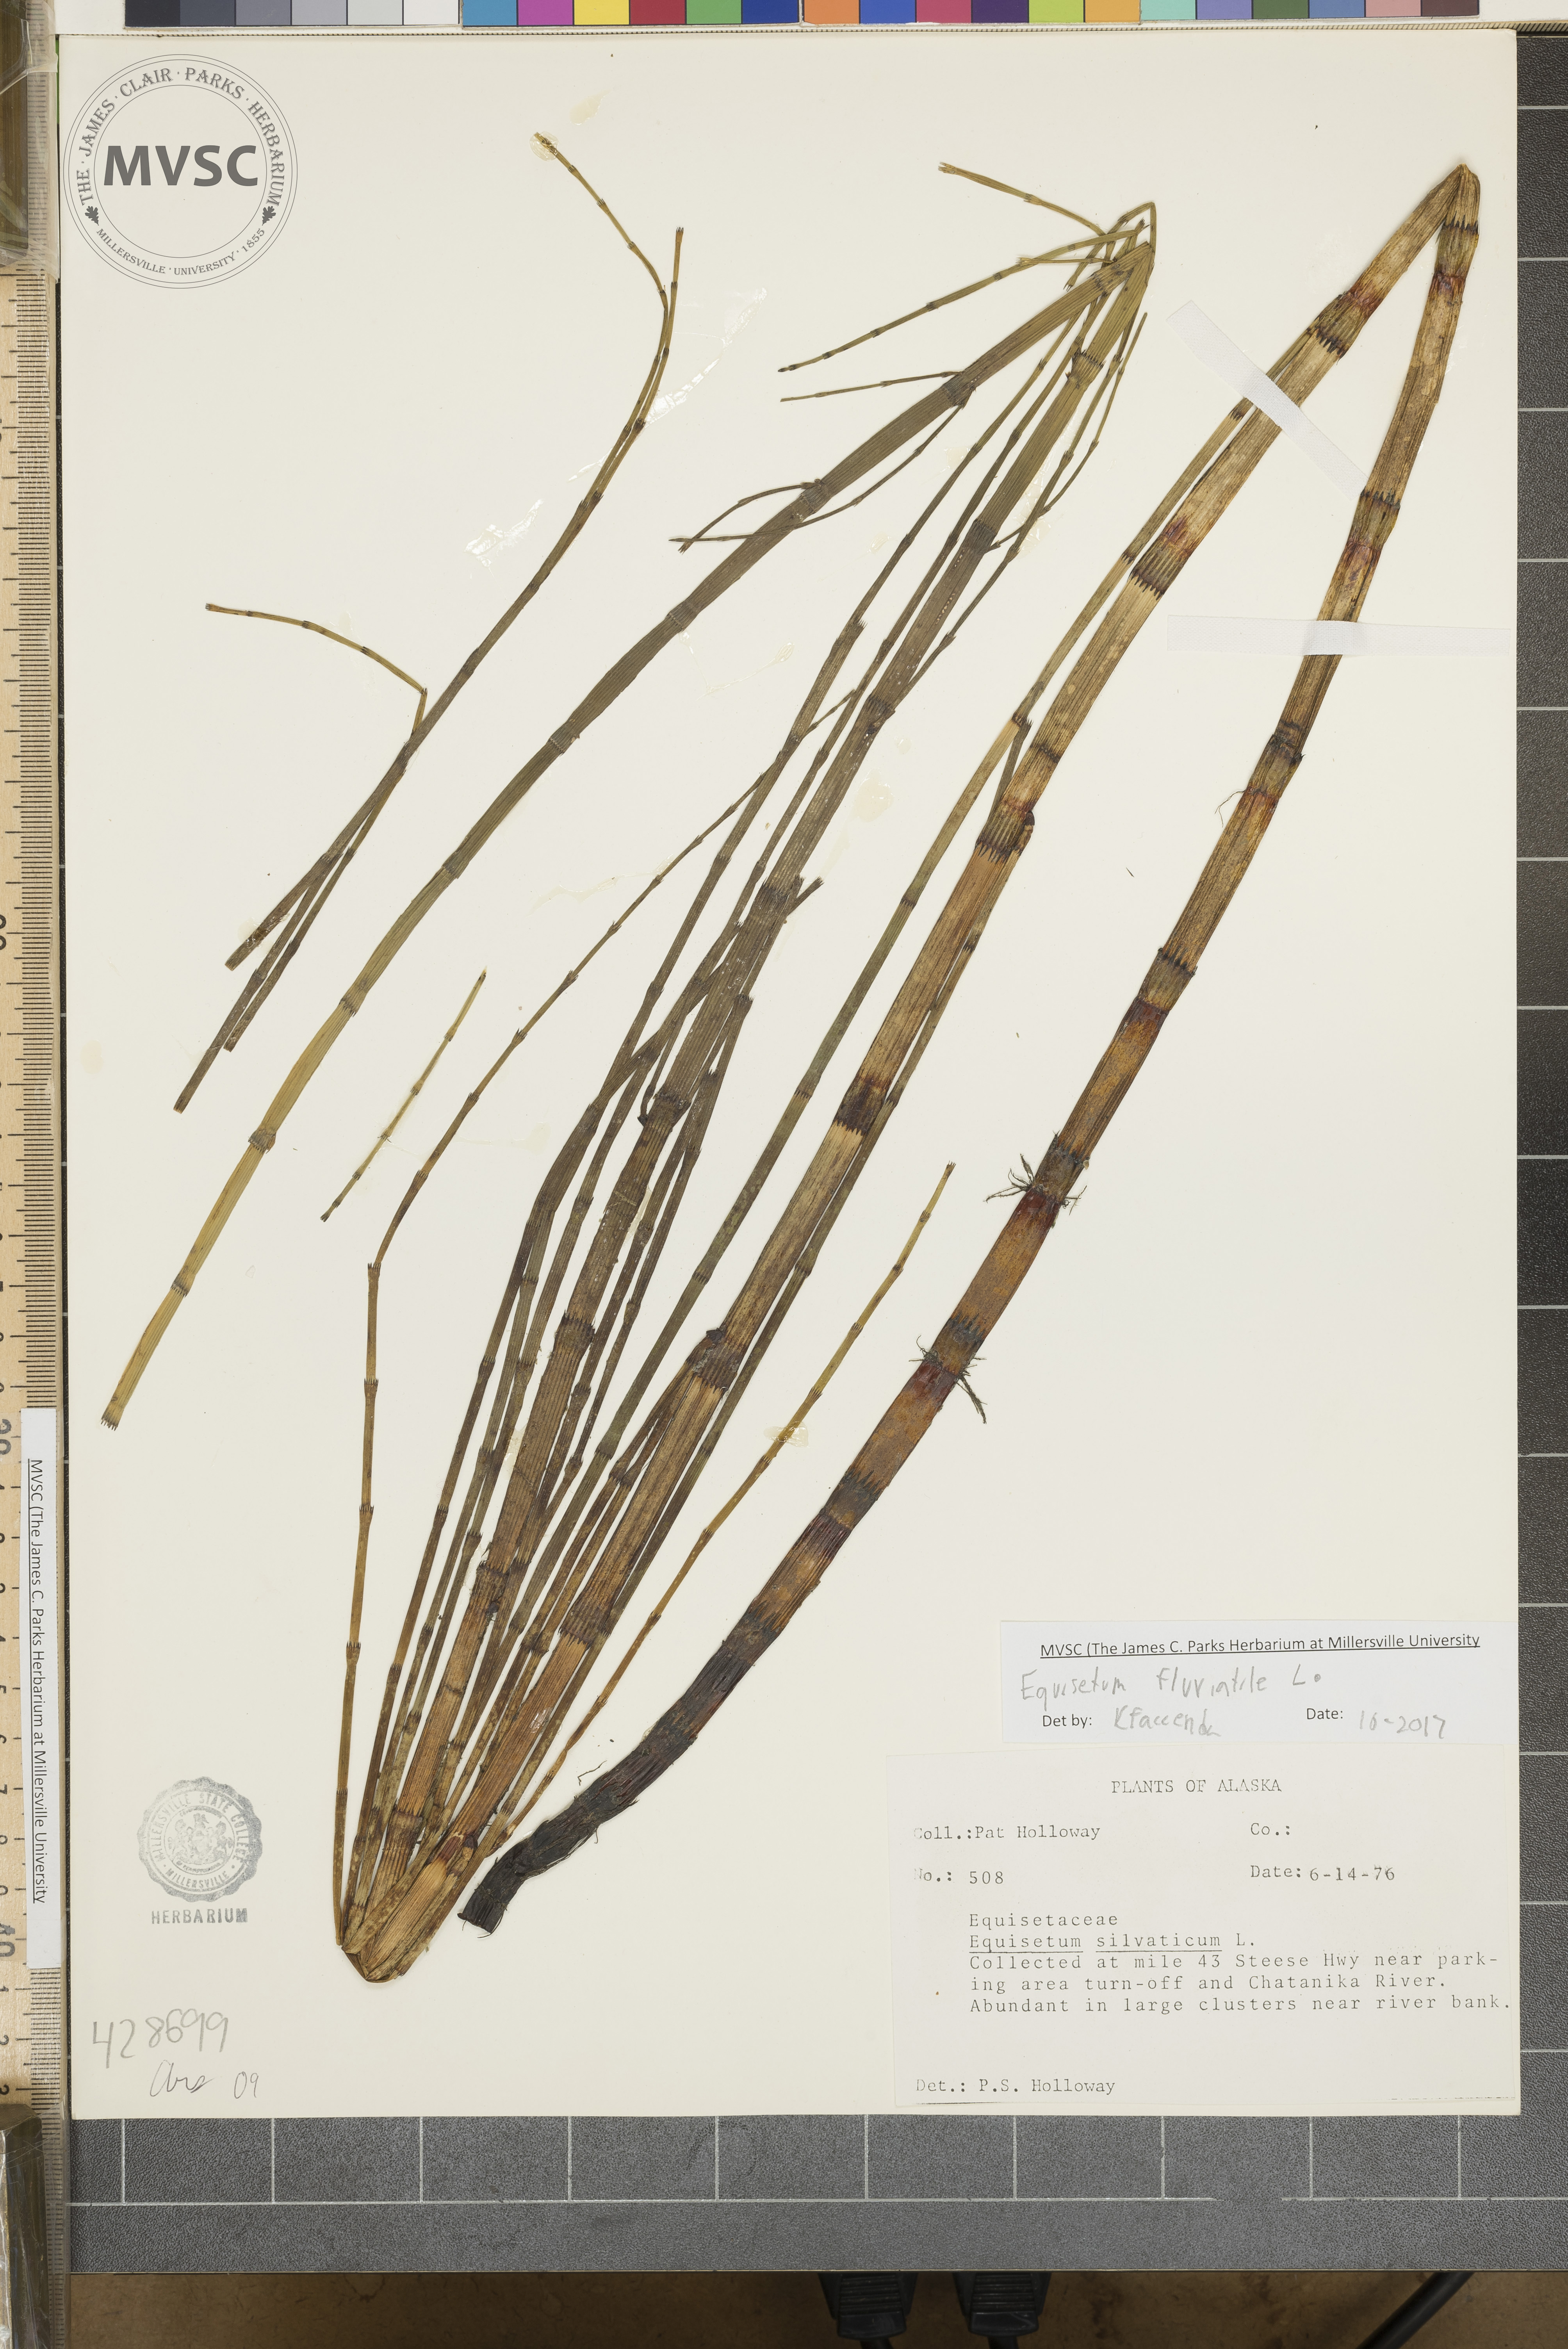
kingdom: Plantae
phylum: Tracheophyta
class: Polypodiopsida
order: Equisetales
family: Equisetaceae
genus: Equisetum
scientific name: Equisetum fluviatile
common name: River horsetail
